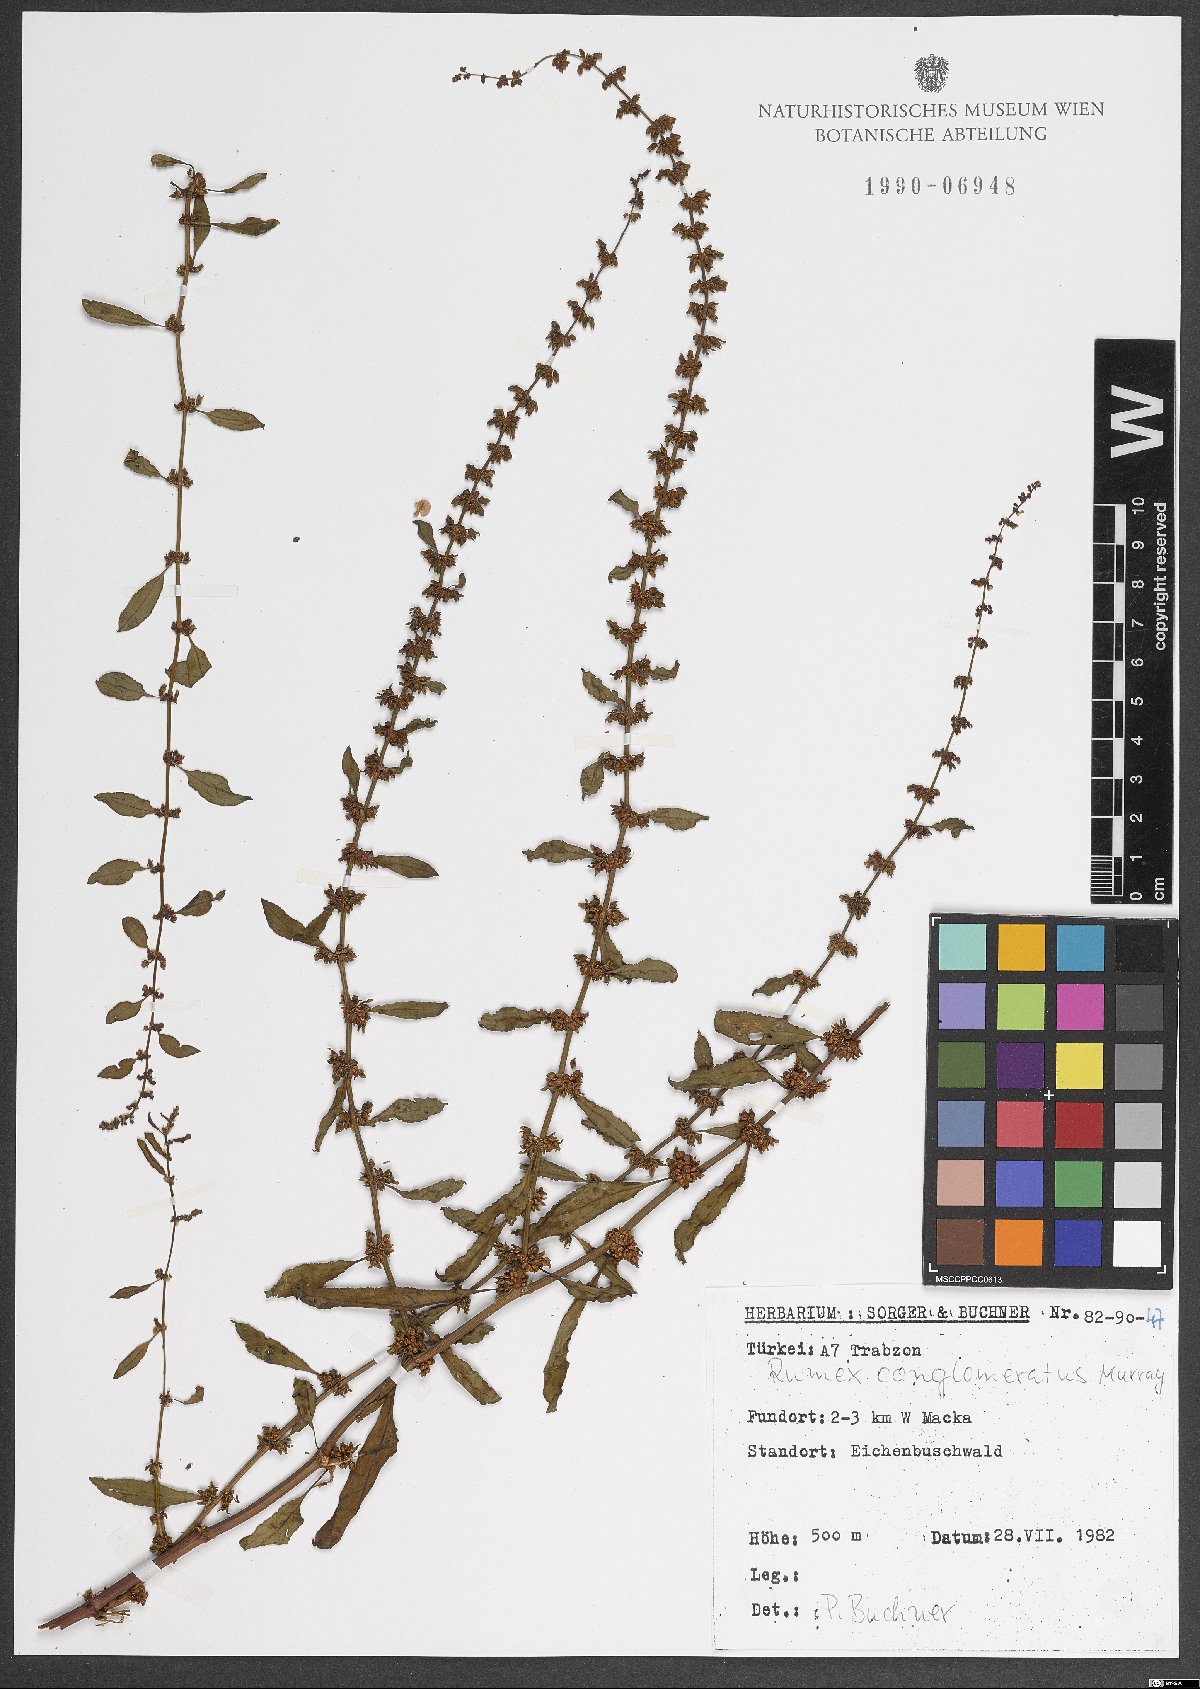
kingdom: Plantae
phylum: Tracheophyta
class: Magnoliopsida
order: Caryophyllales
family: Polygonaceae
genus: Rumex
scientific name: Rumex conglomeratus
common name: Clustered dock
